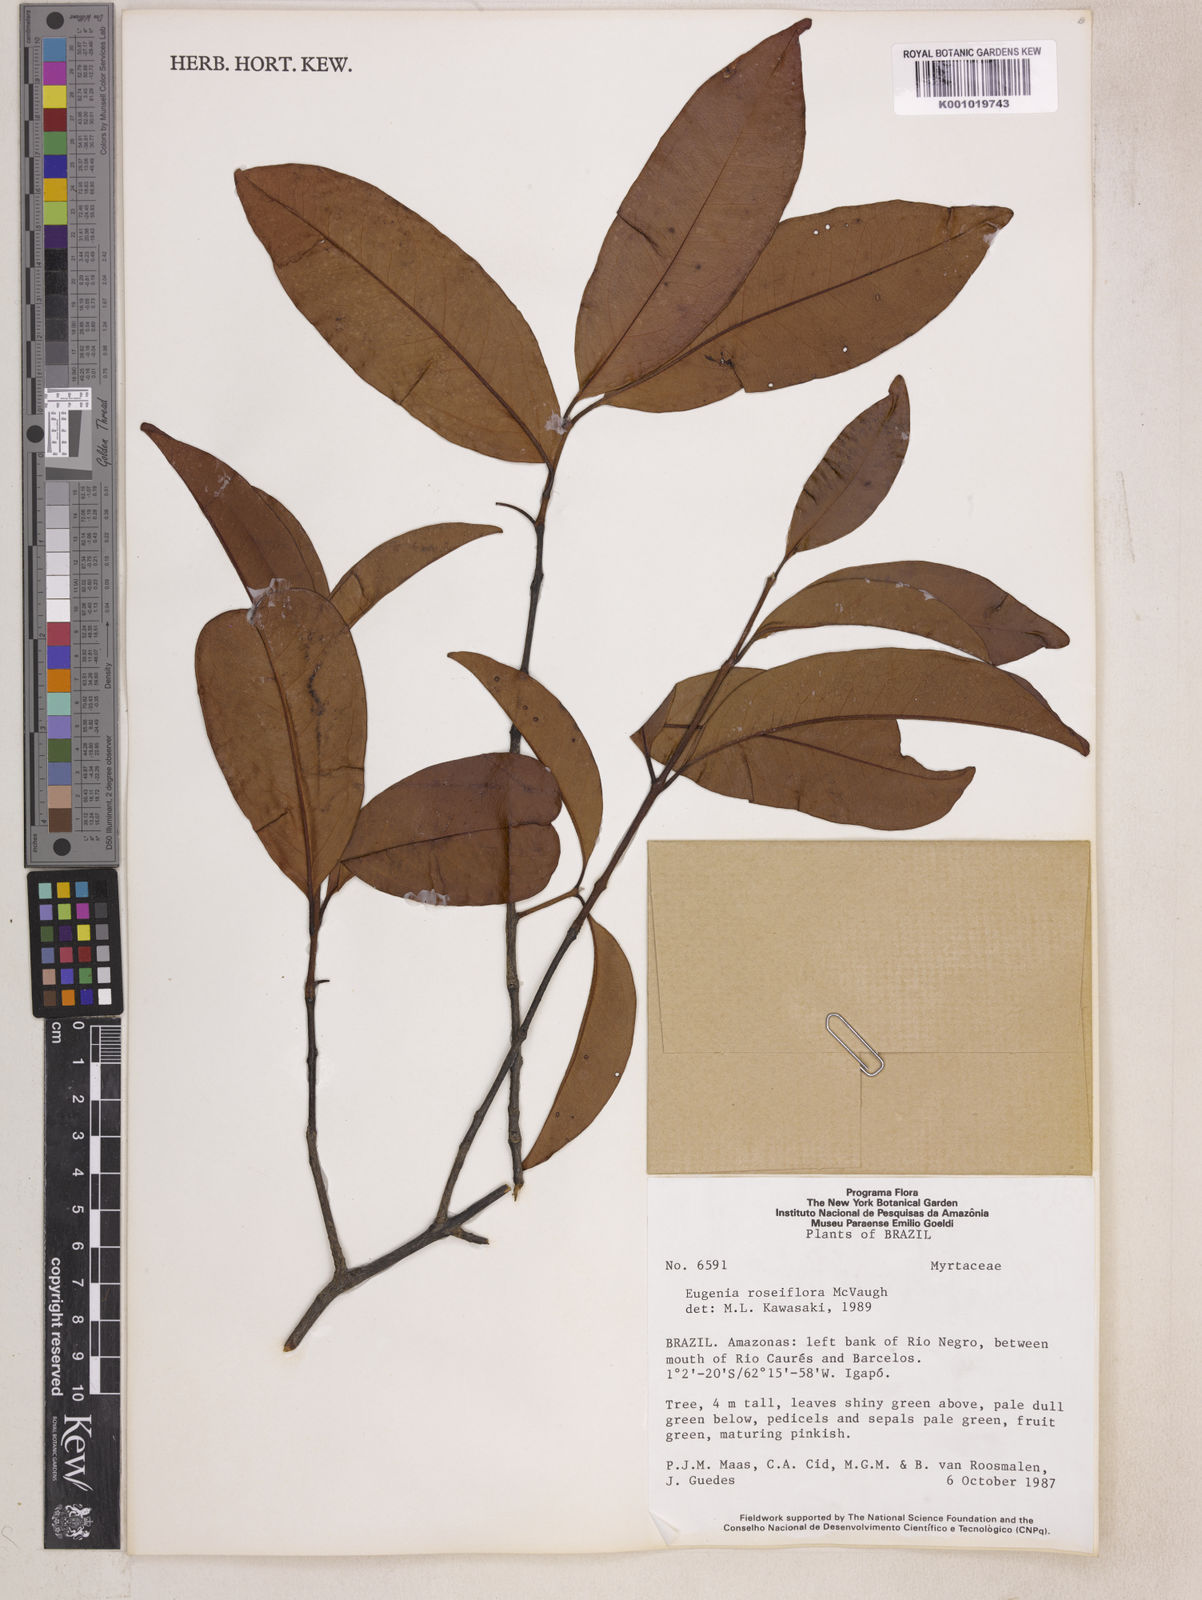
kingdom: Plantae
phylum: Tracheophyta
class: Magnoliopsida
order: Myrtales
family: Myrtaceae
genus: Eugenia
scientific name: Eugenia roseiflora
